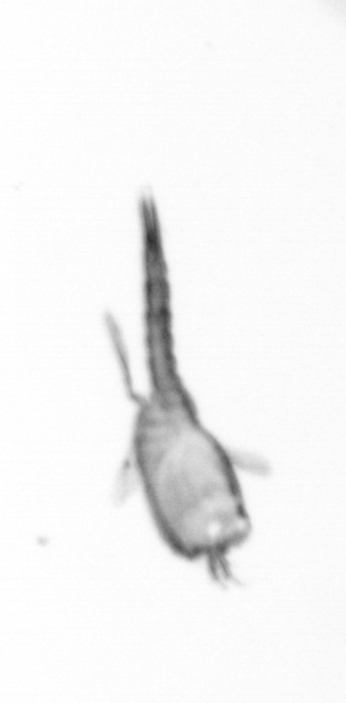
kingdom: Animalia
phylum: Arthropoda
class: Copepoda
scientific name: Copepoda
